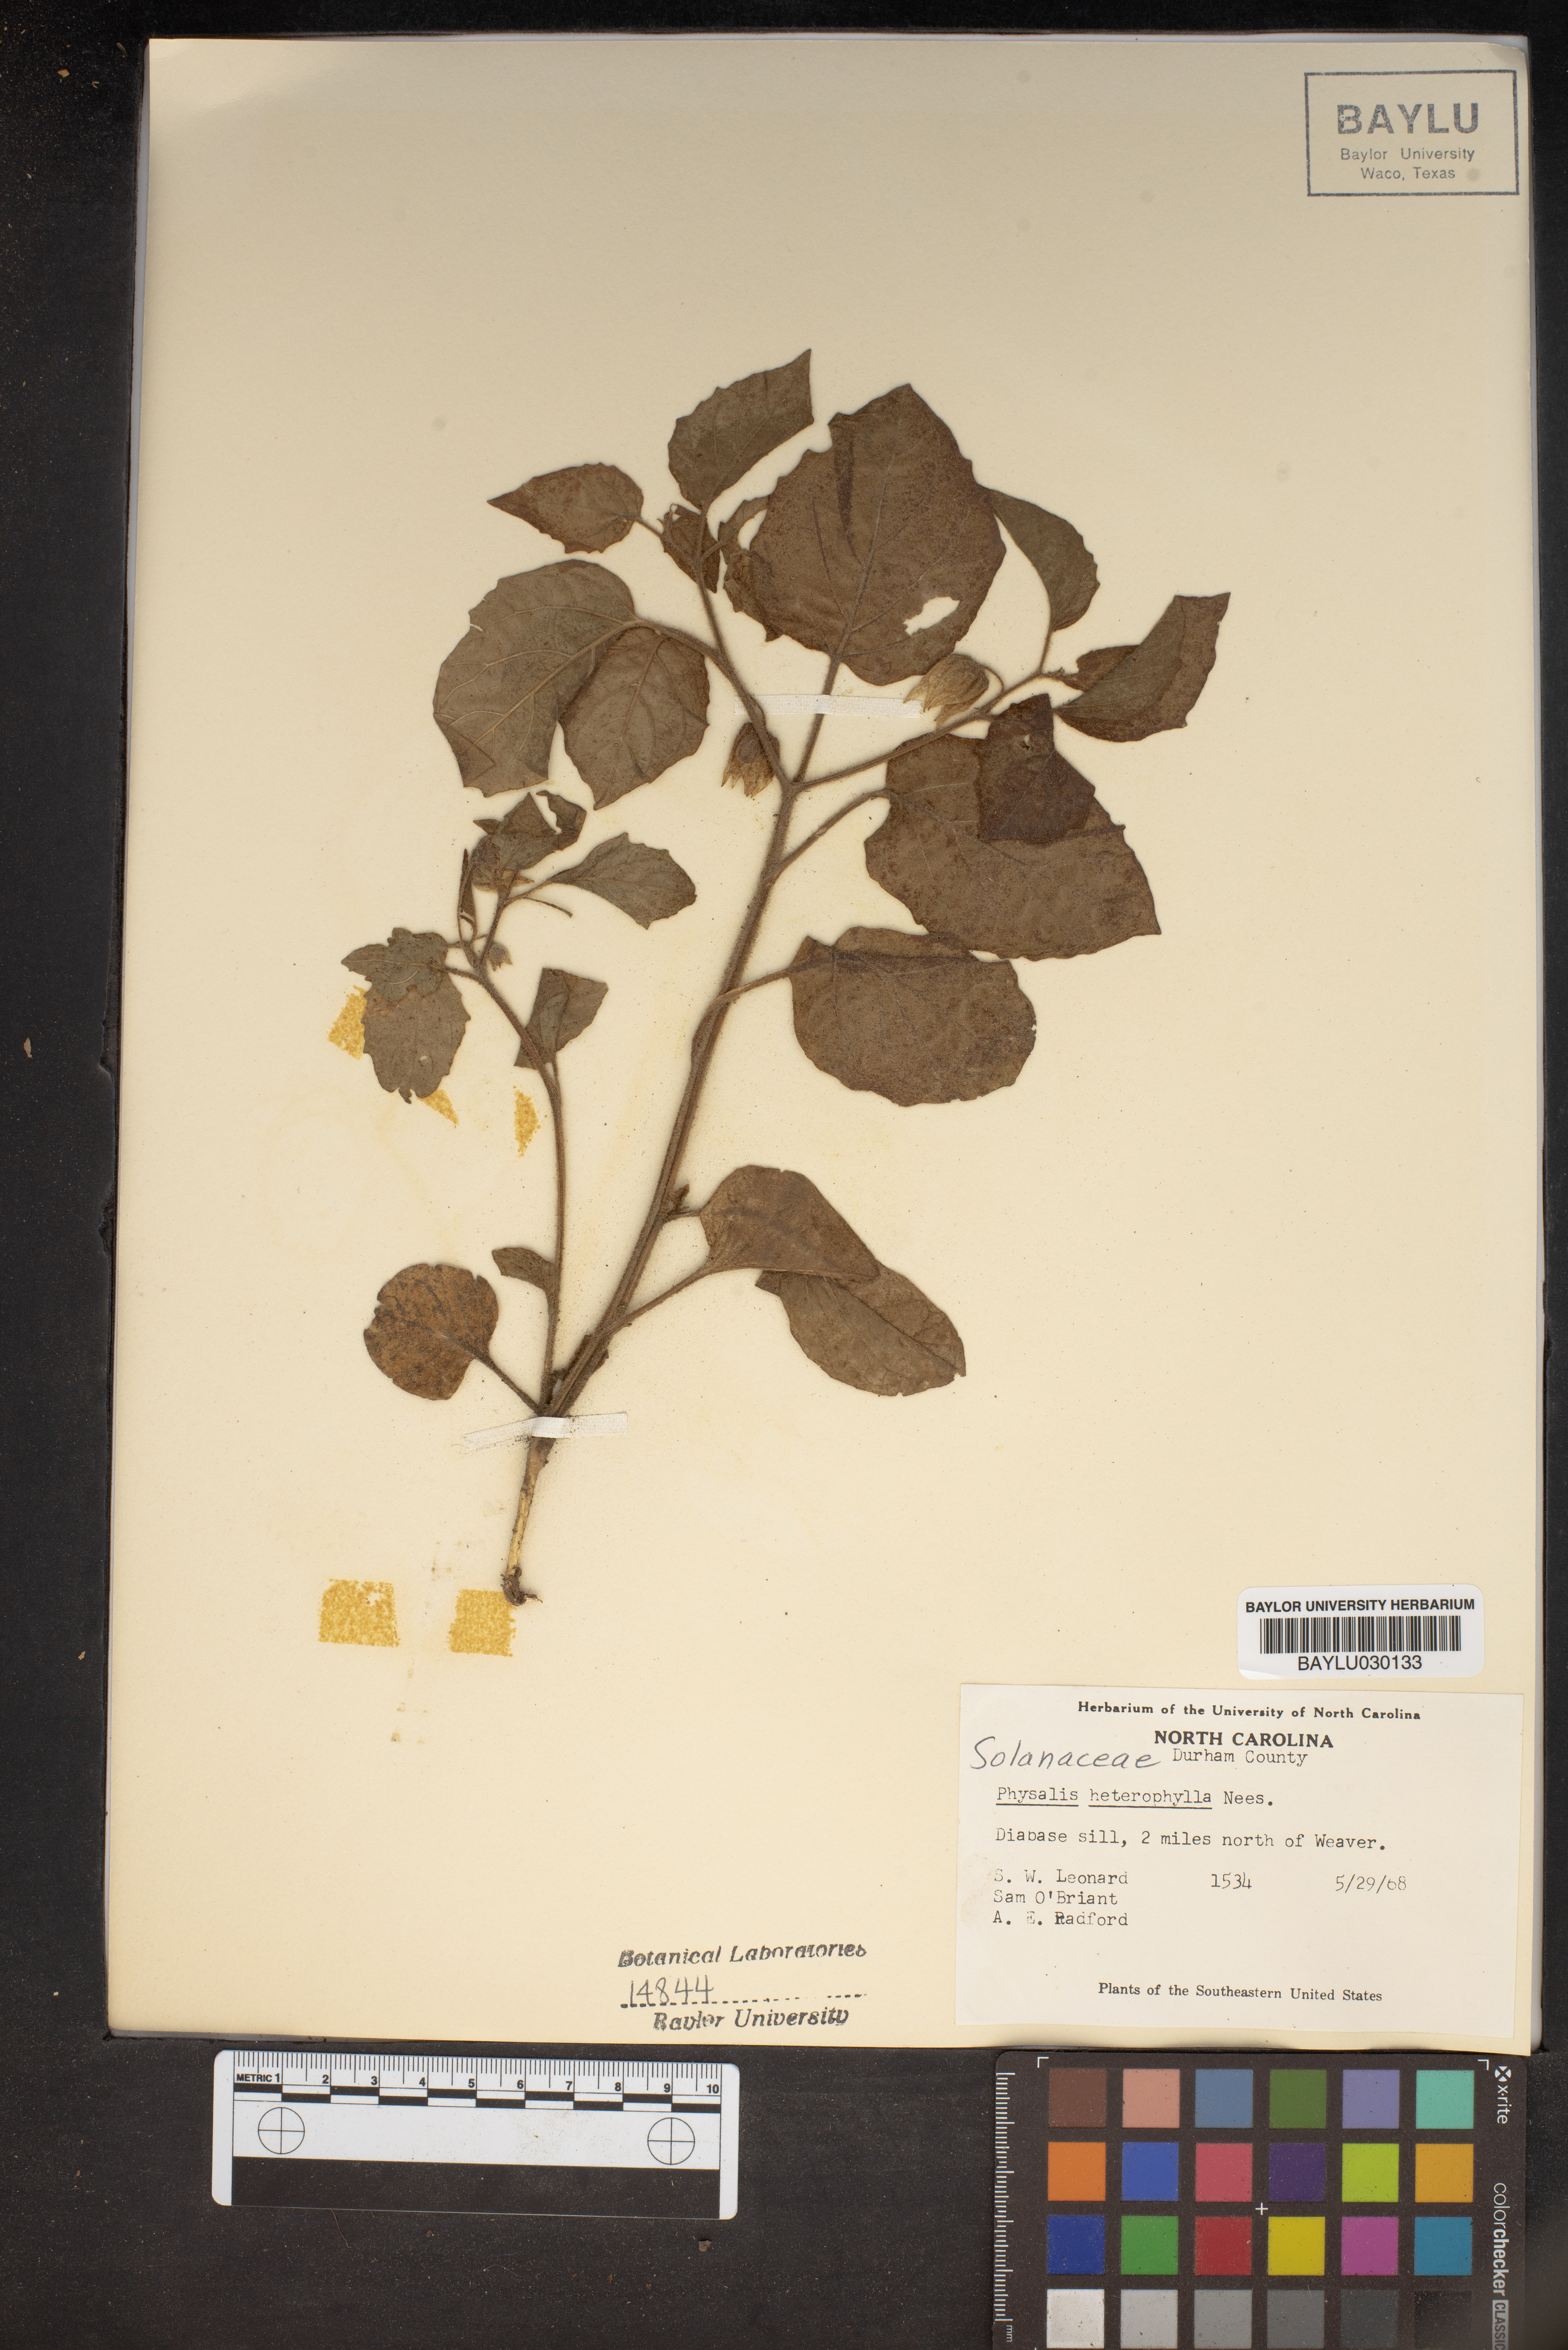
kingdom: Plantae
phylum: Tracheophyta
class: Magnoliopsida
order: Solanales
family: Solanaceae
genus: Physalis
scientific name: Physalis heterophylla
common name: Clammy ground-cherry
